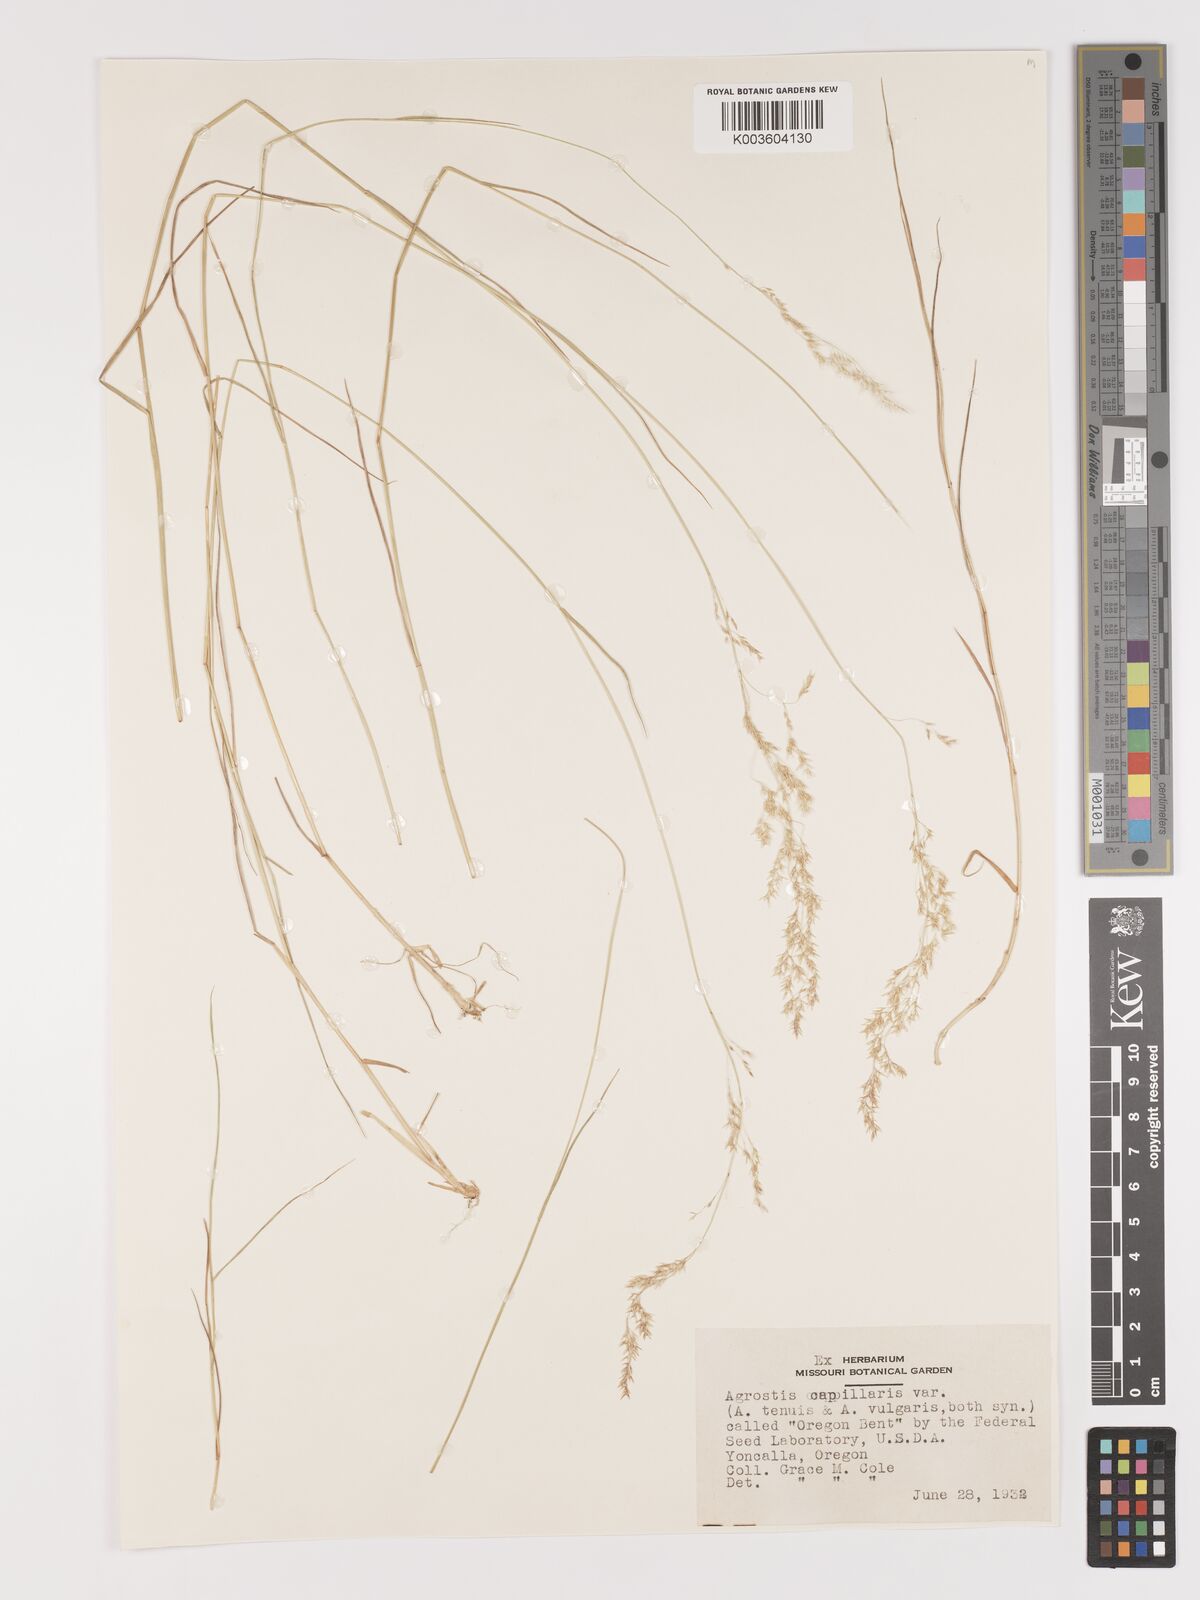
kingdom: Plantae
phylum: Tracheophyta
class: Liliopsida
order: Poales
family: Poaceae
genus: Agrostis
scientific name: Agrostis capillaris
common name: Colonial bentgrass
